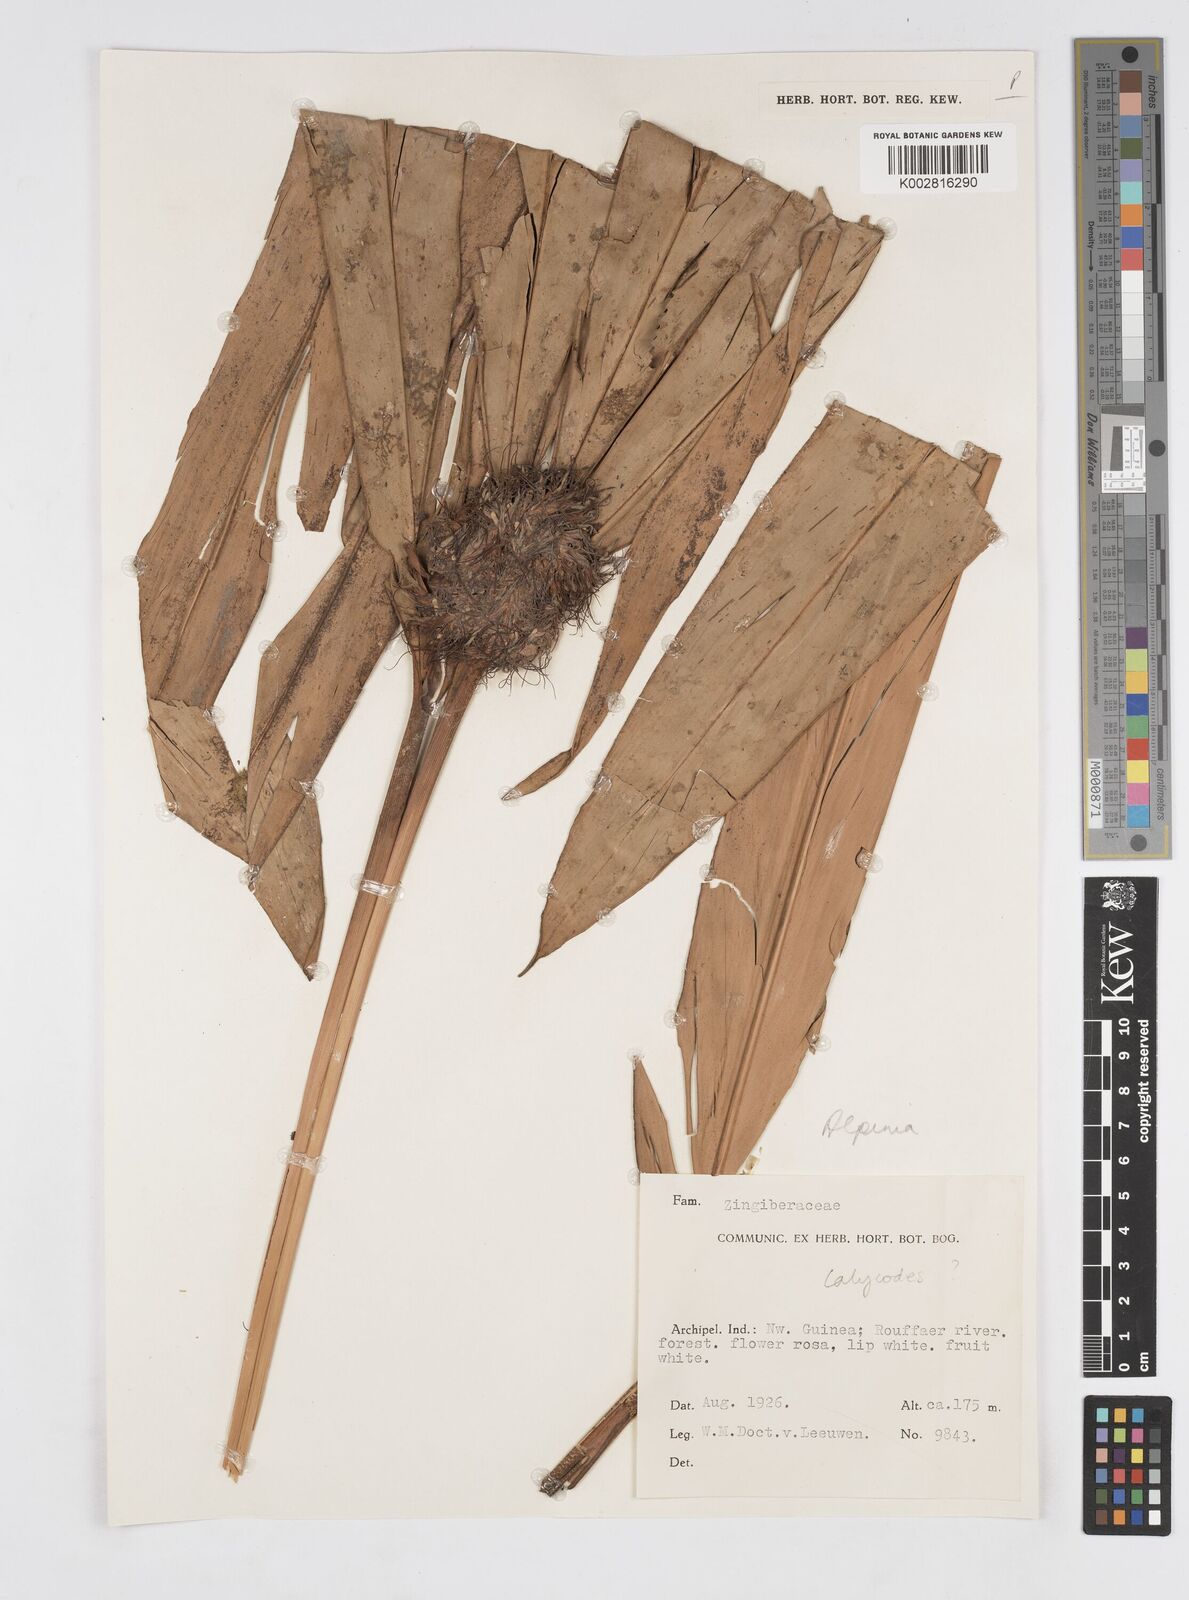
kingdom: Plantae
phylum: Tracheophyta
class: Liliopsida
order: Zingiberales
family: Zingiberaceae
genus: Alpinia
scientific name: Alpinia calycodes
